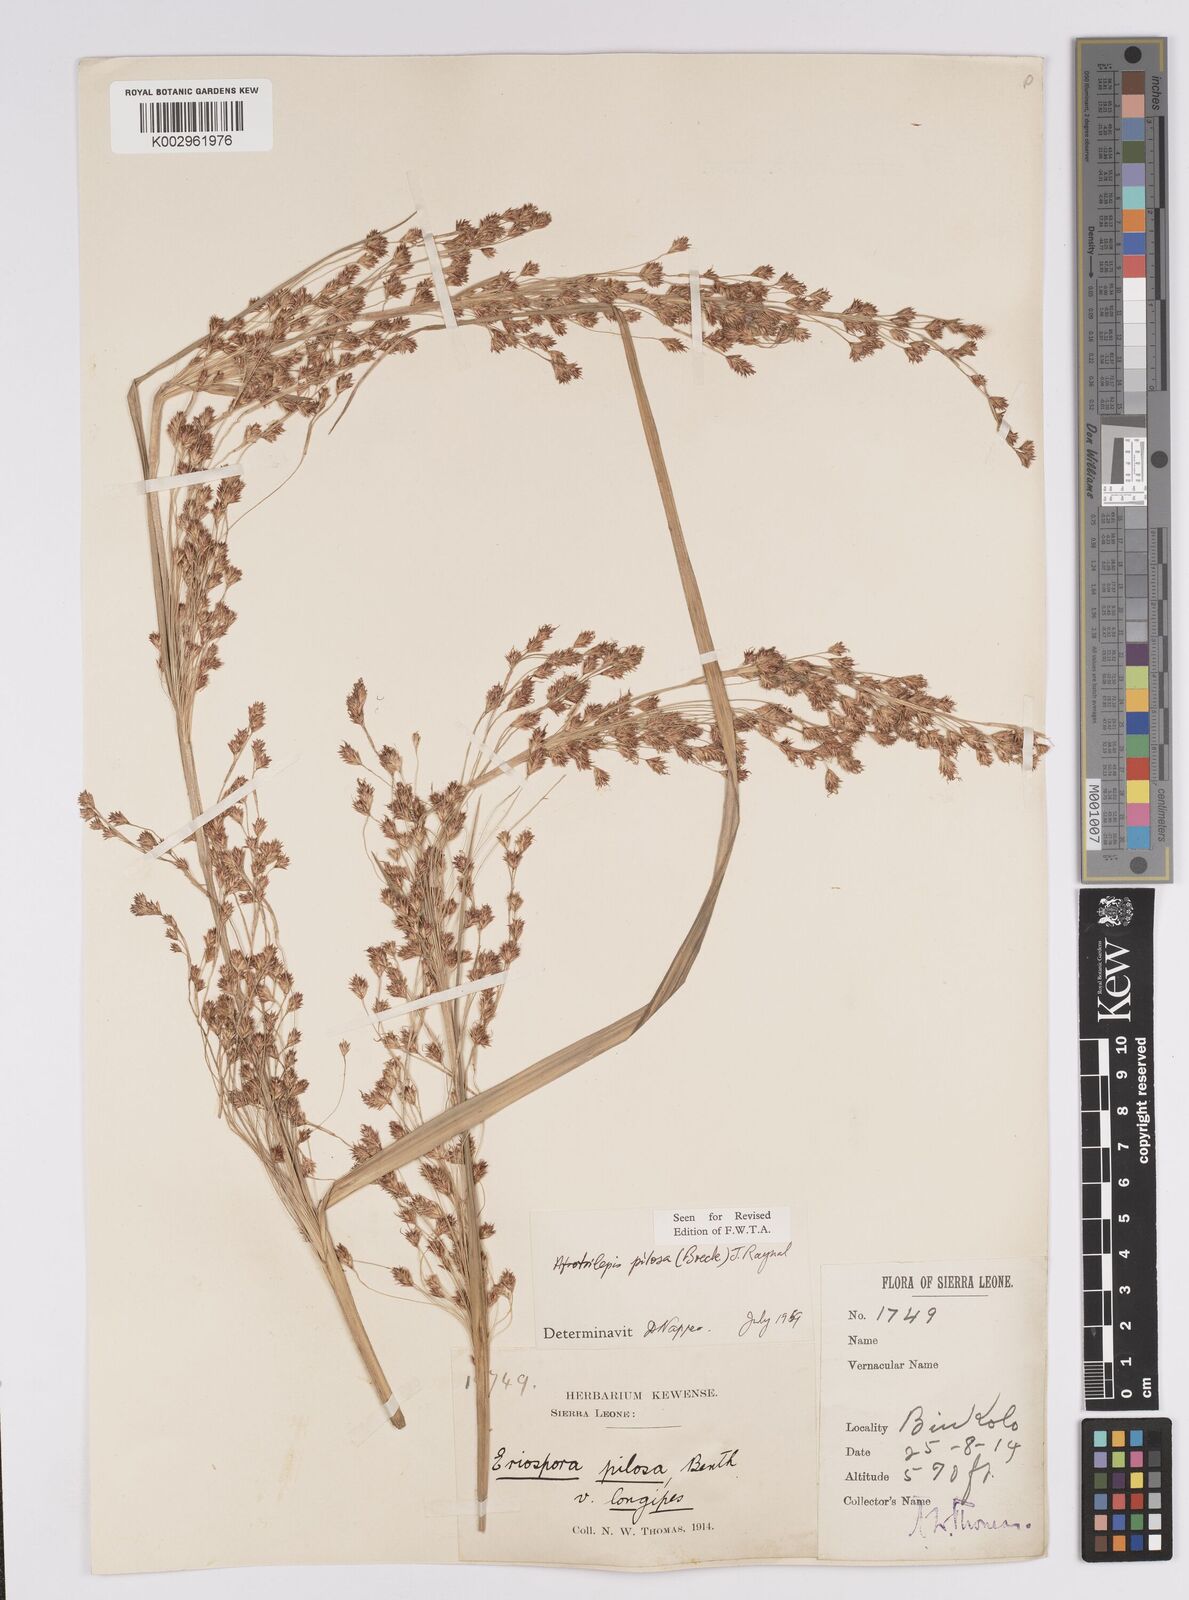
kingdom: Plantae
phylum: Tracheophyta
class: Liliopsida
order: Poales
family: Cyperaceae
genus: Afrotrilepis
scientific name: Afrotrilepis pilosa
